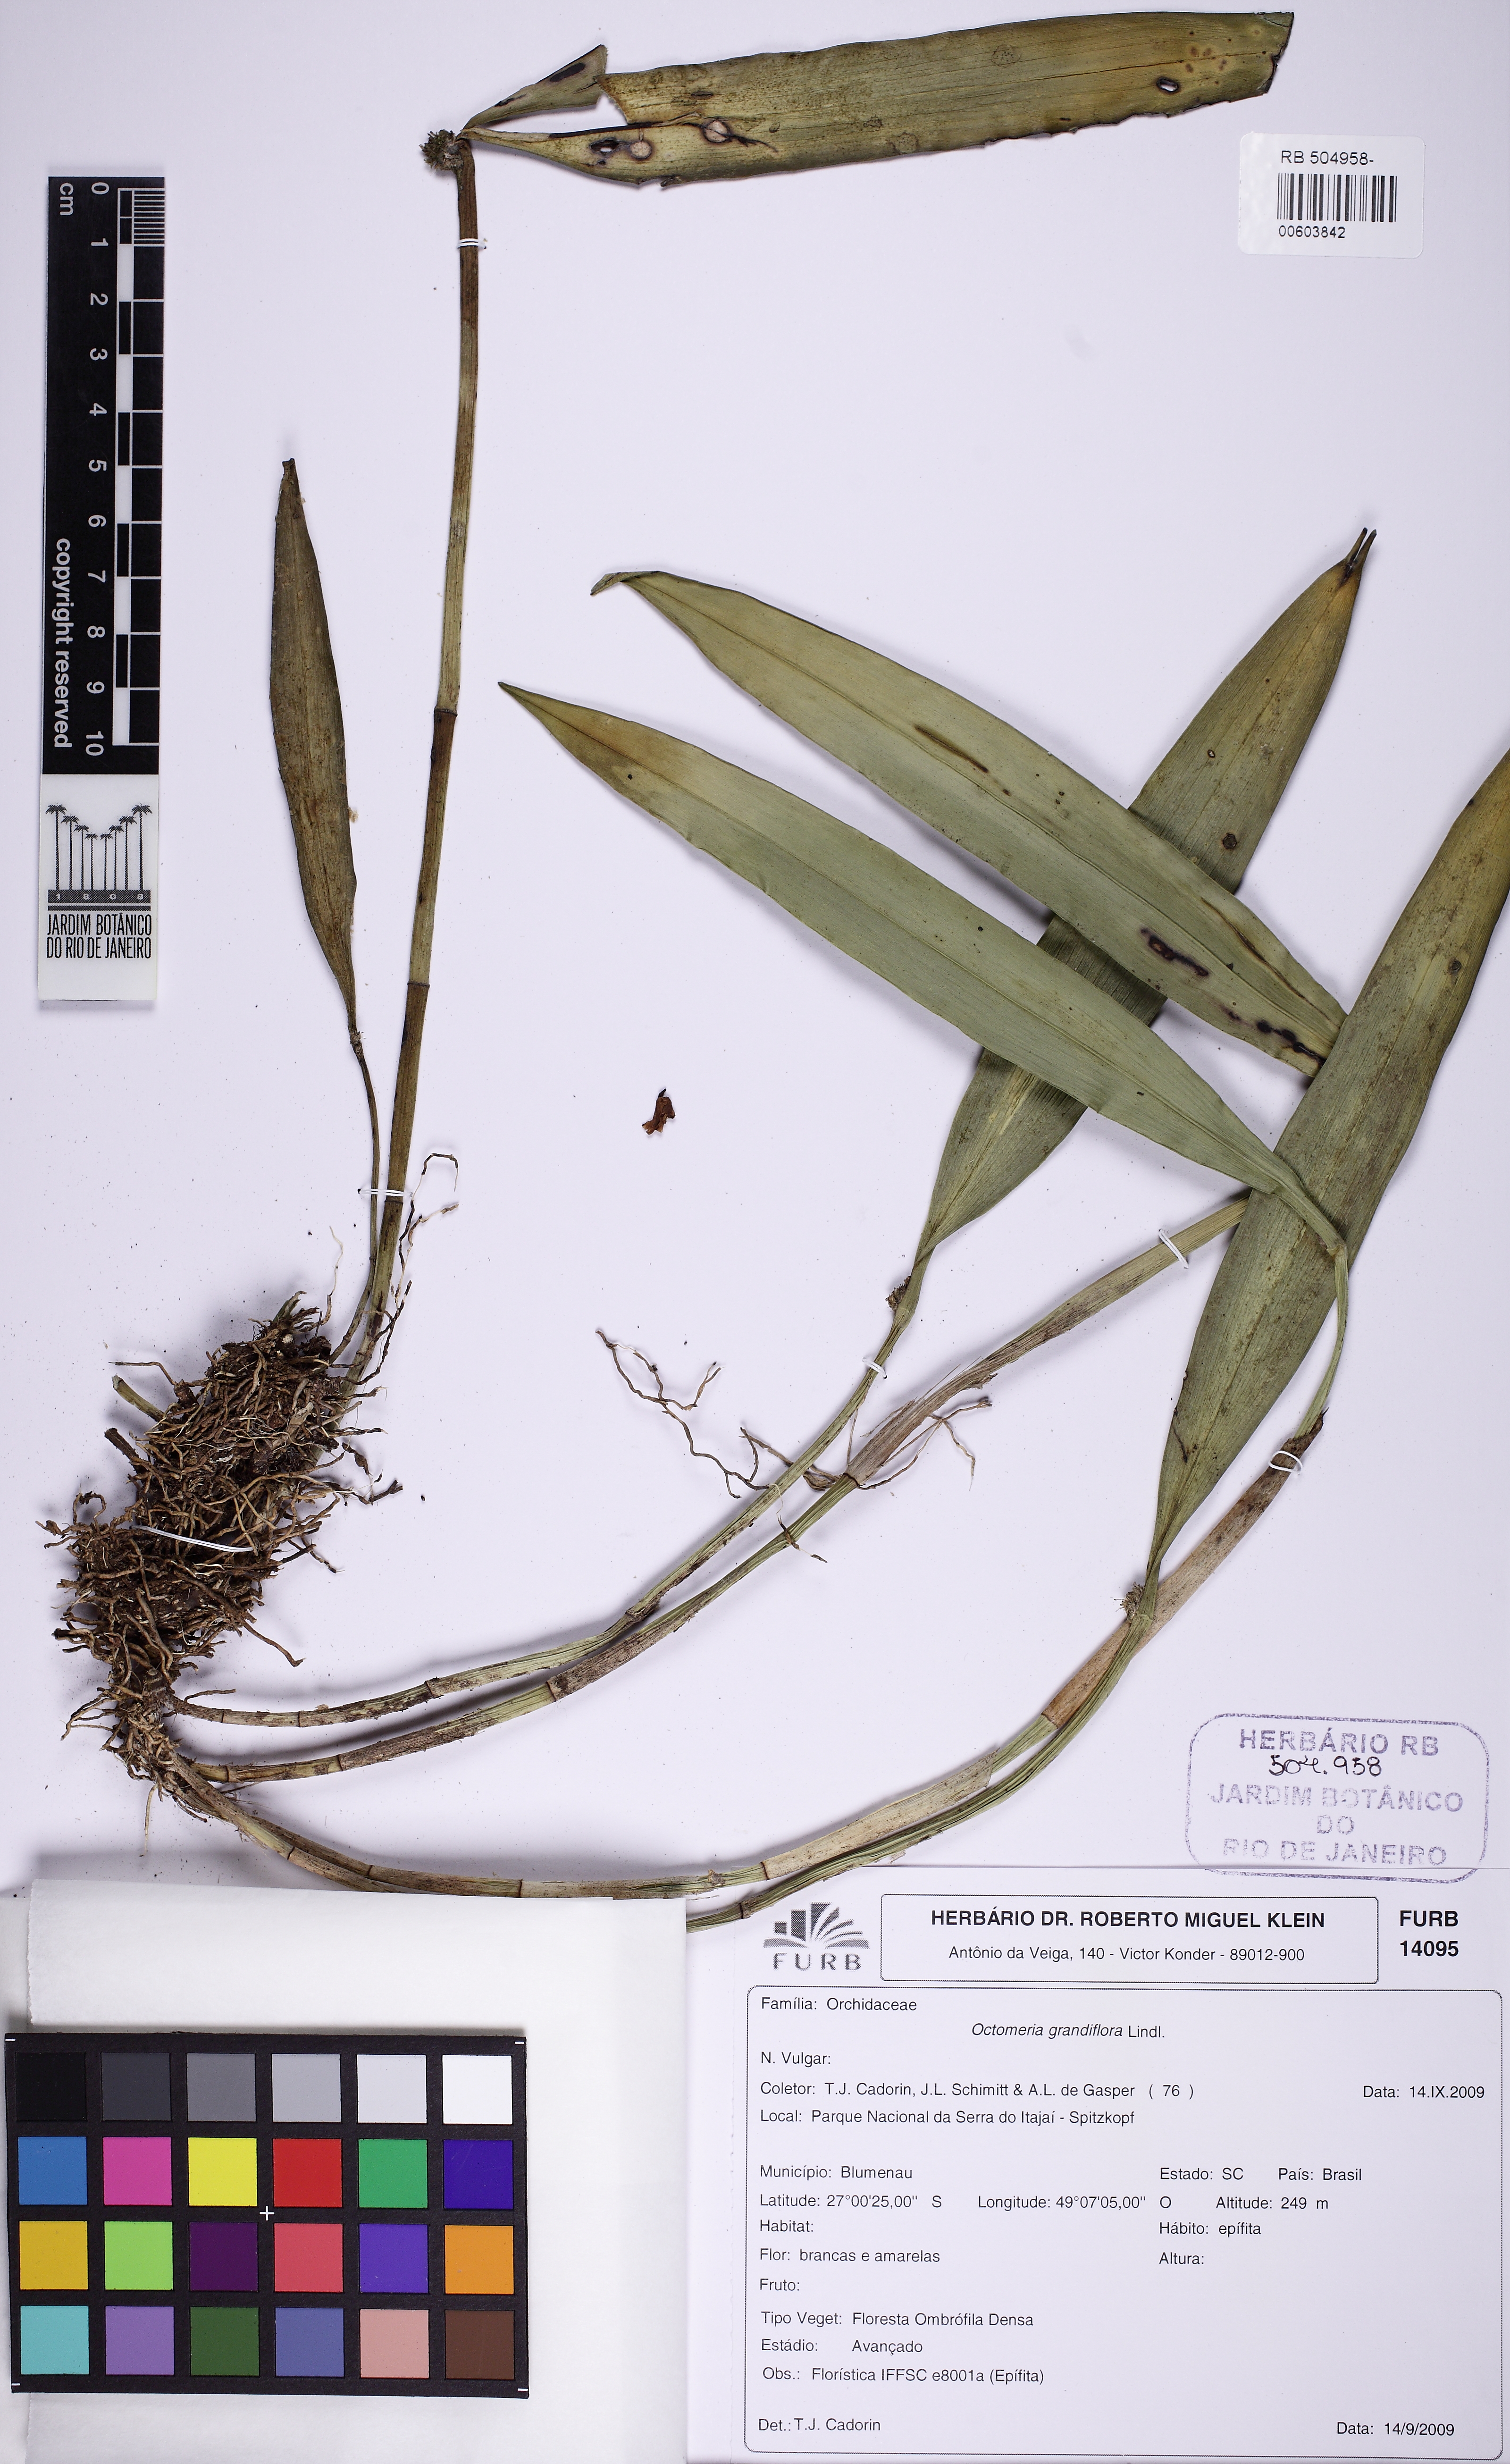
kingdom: Plantae
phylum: Tracheophyta
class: Liliopsida
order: Asparagales
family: Orchidaceae
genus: Octomeria
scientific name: Octomeria grandiflora
